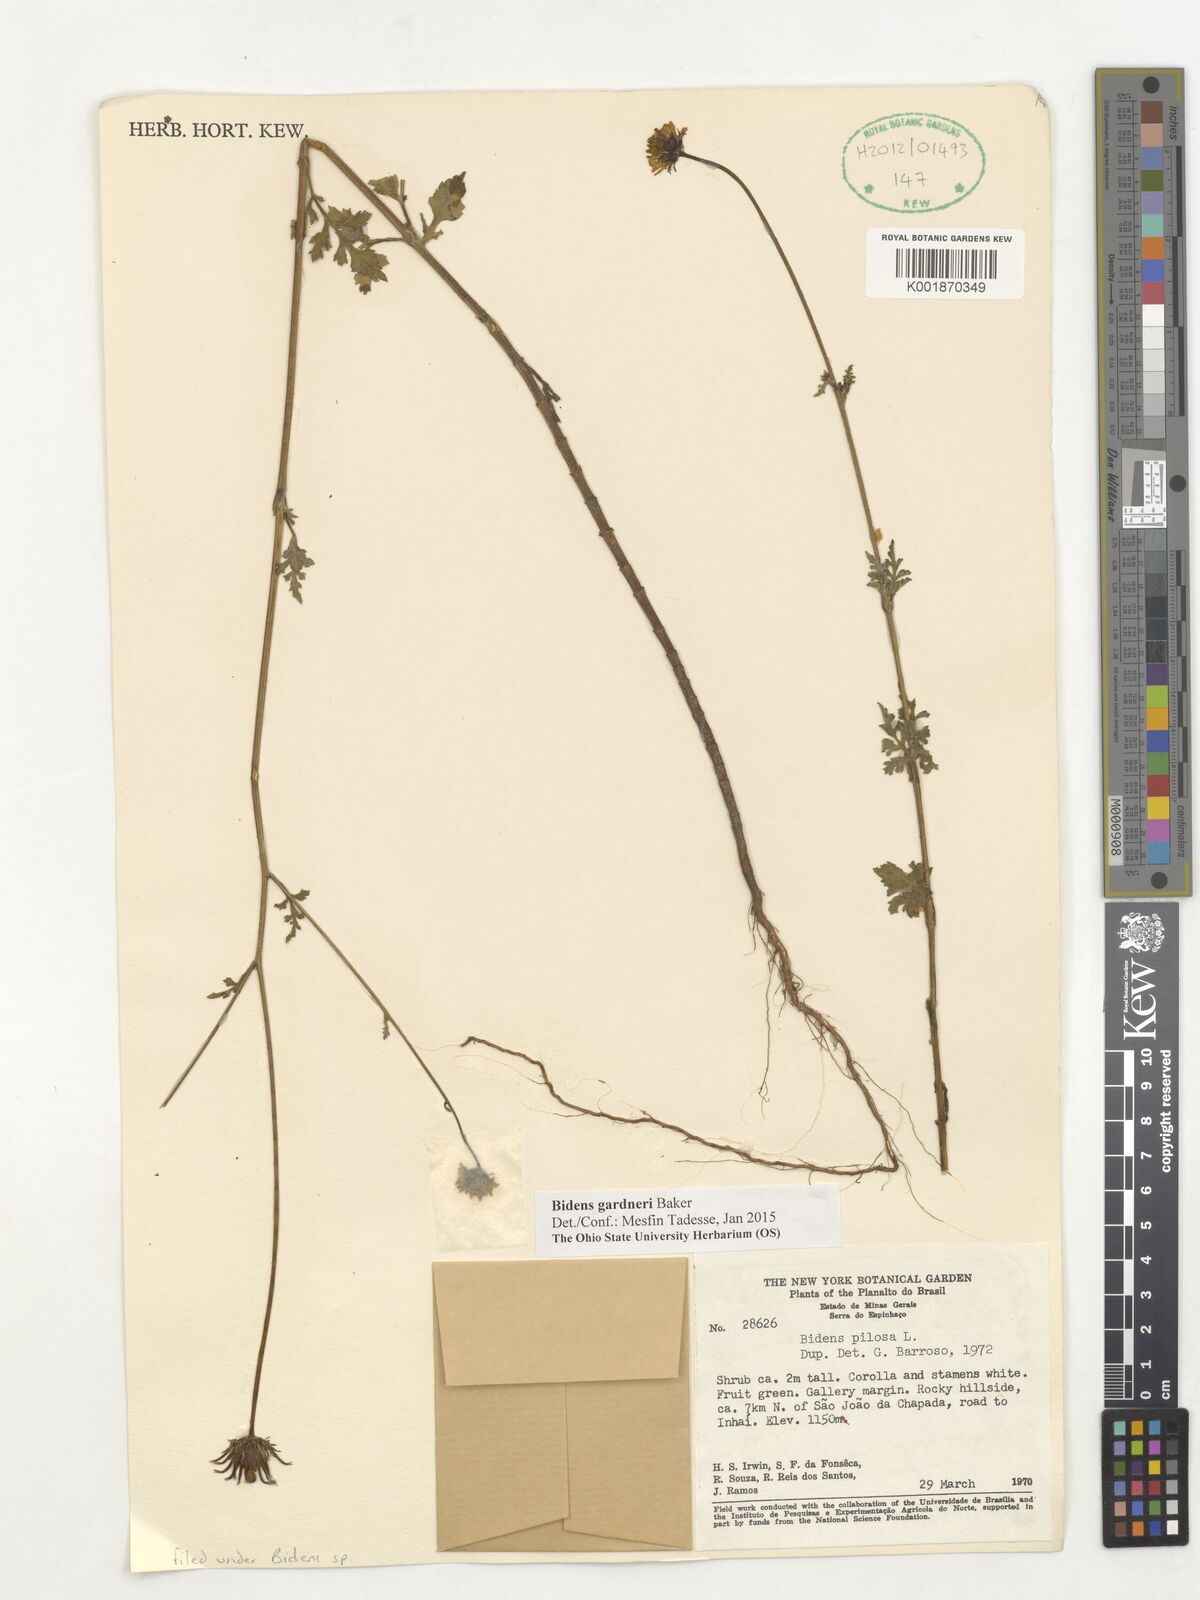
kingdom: Plantae
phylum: Tracheophyta
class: Magnoliopsida
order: Asterales
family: Asteraceae
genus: Bidens
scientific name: Bidens gardneri
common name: Ridge beggartick
